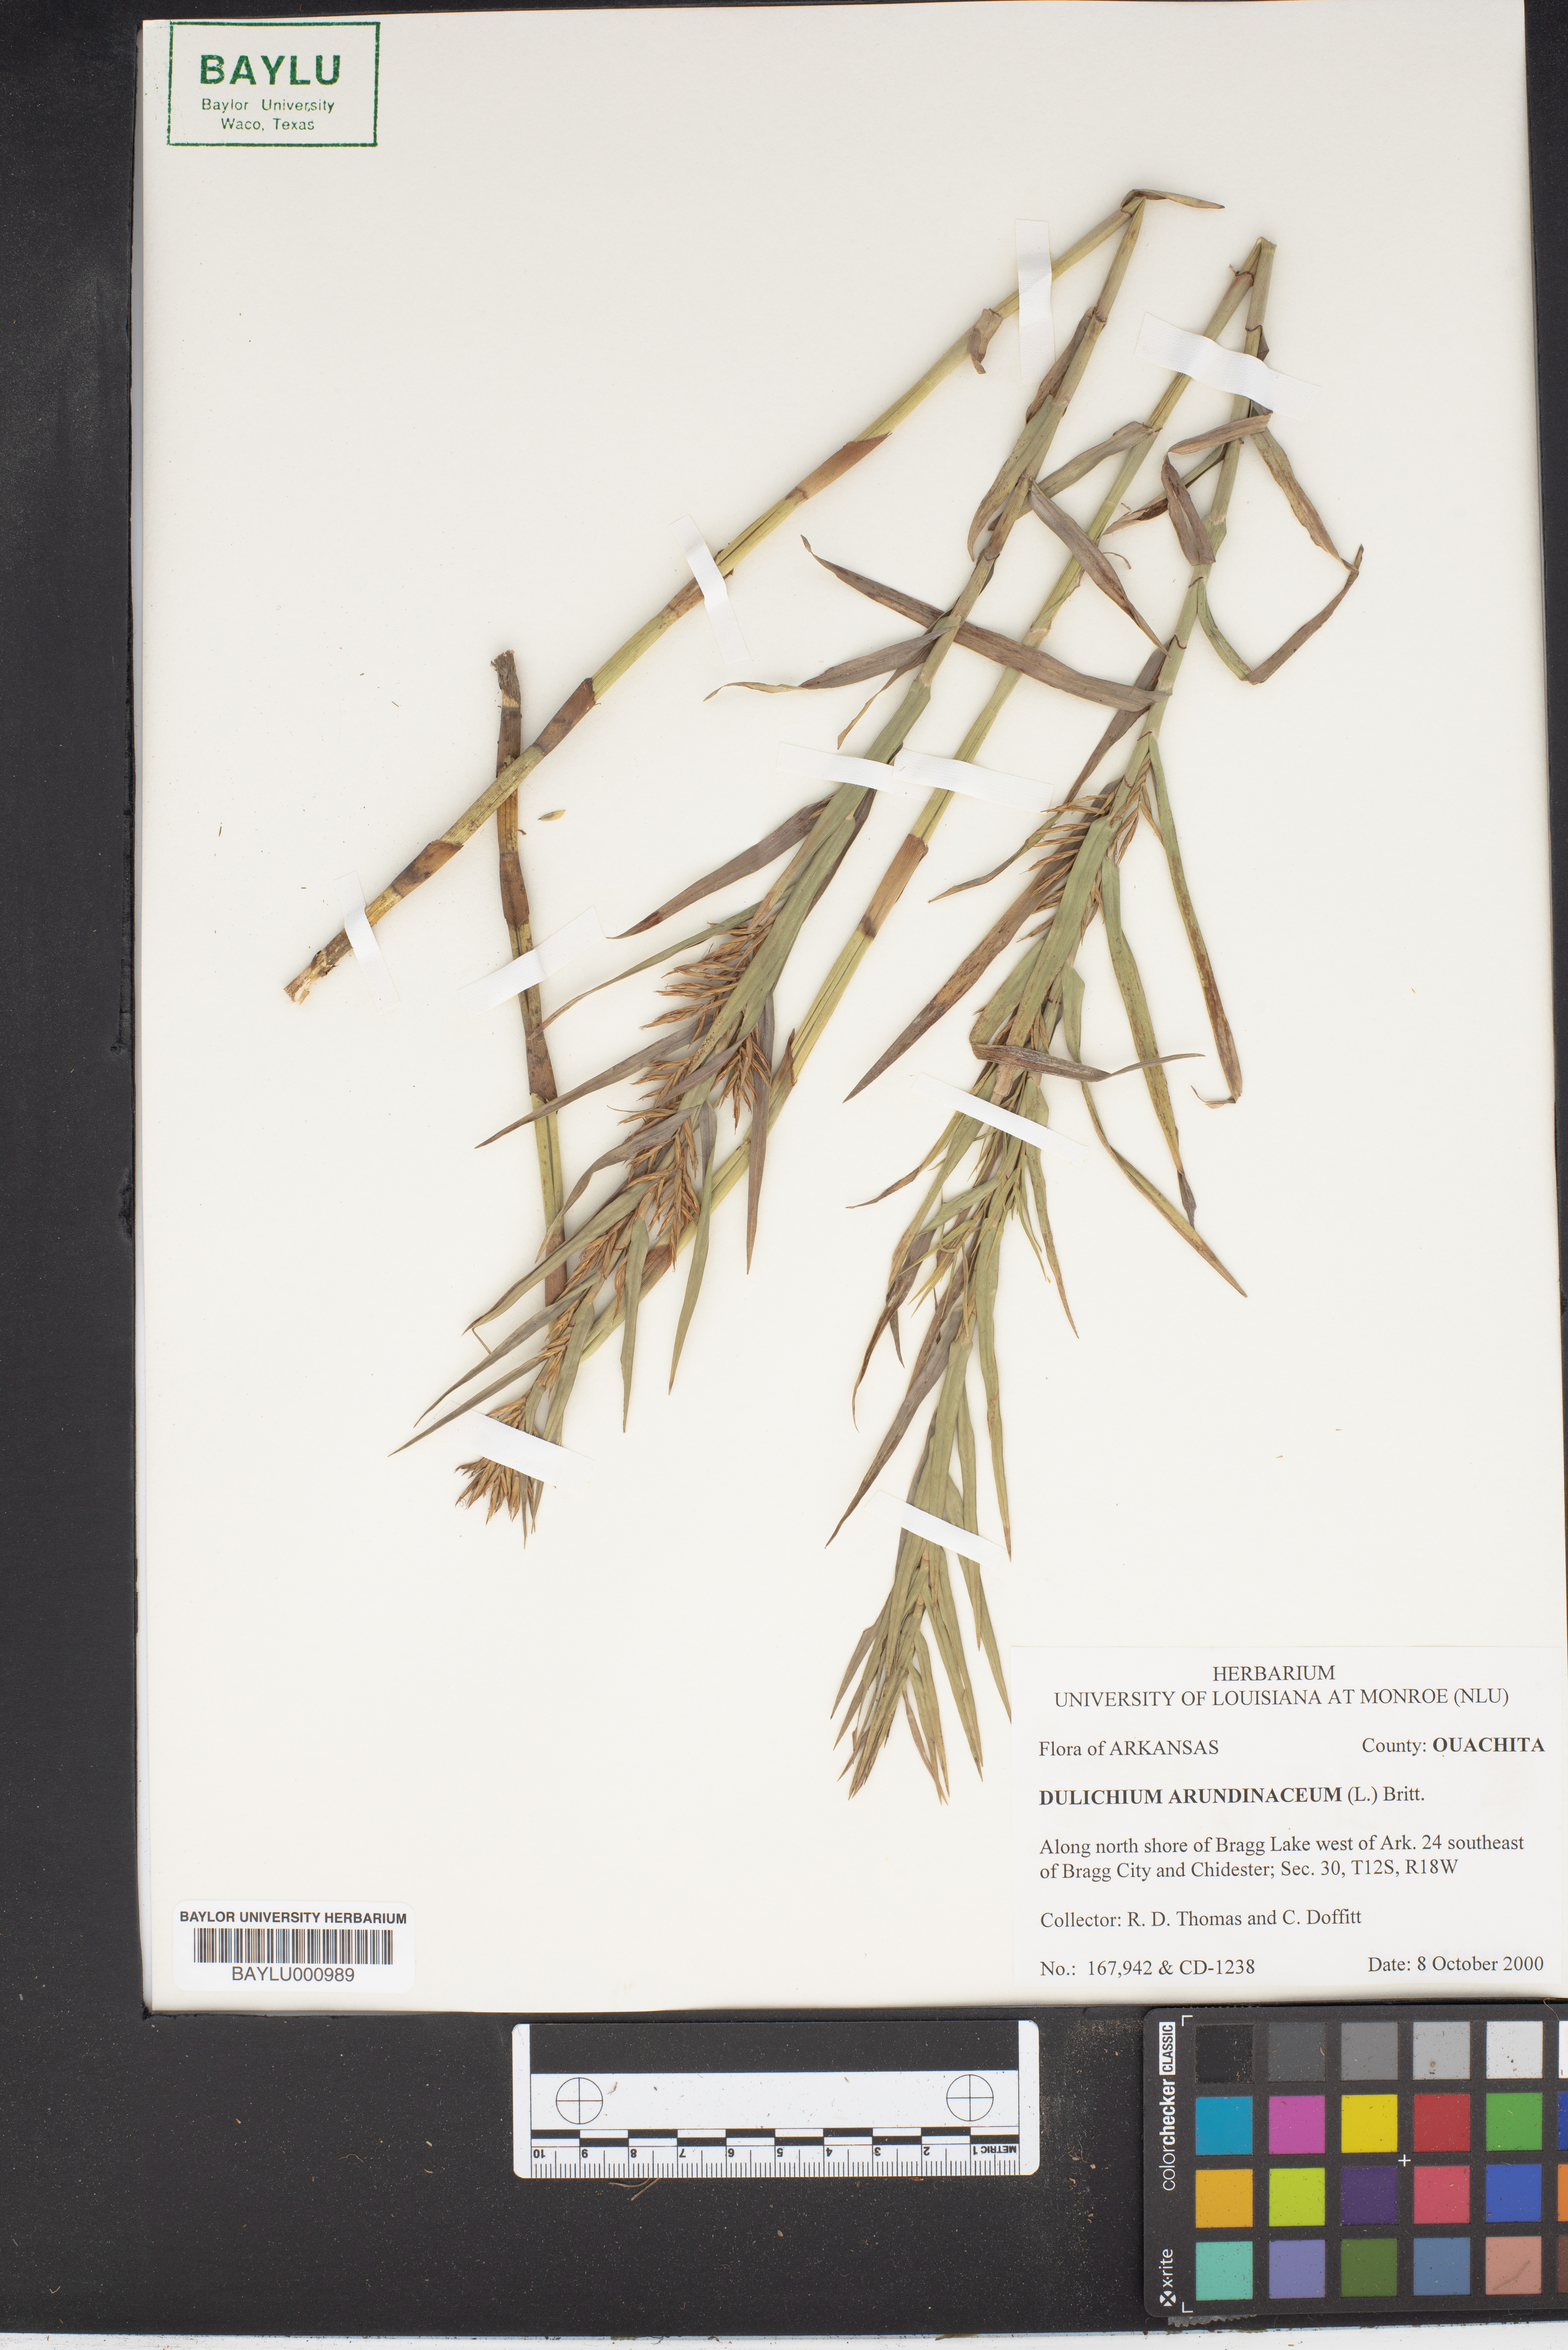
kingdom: Plantae
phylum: Tracheophyta
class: Liliopsida
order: Poales
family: Cyperaceae
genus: Dulichium
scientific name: Dulichium arundinaceum
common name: Three-way sedge
